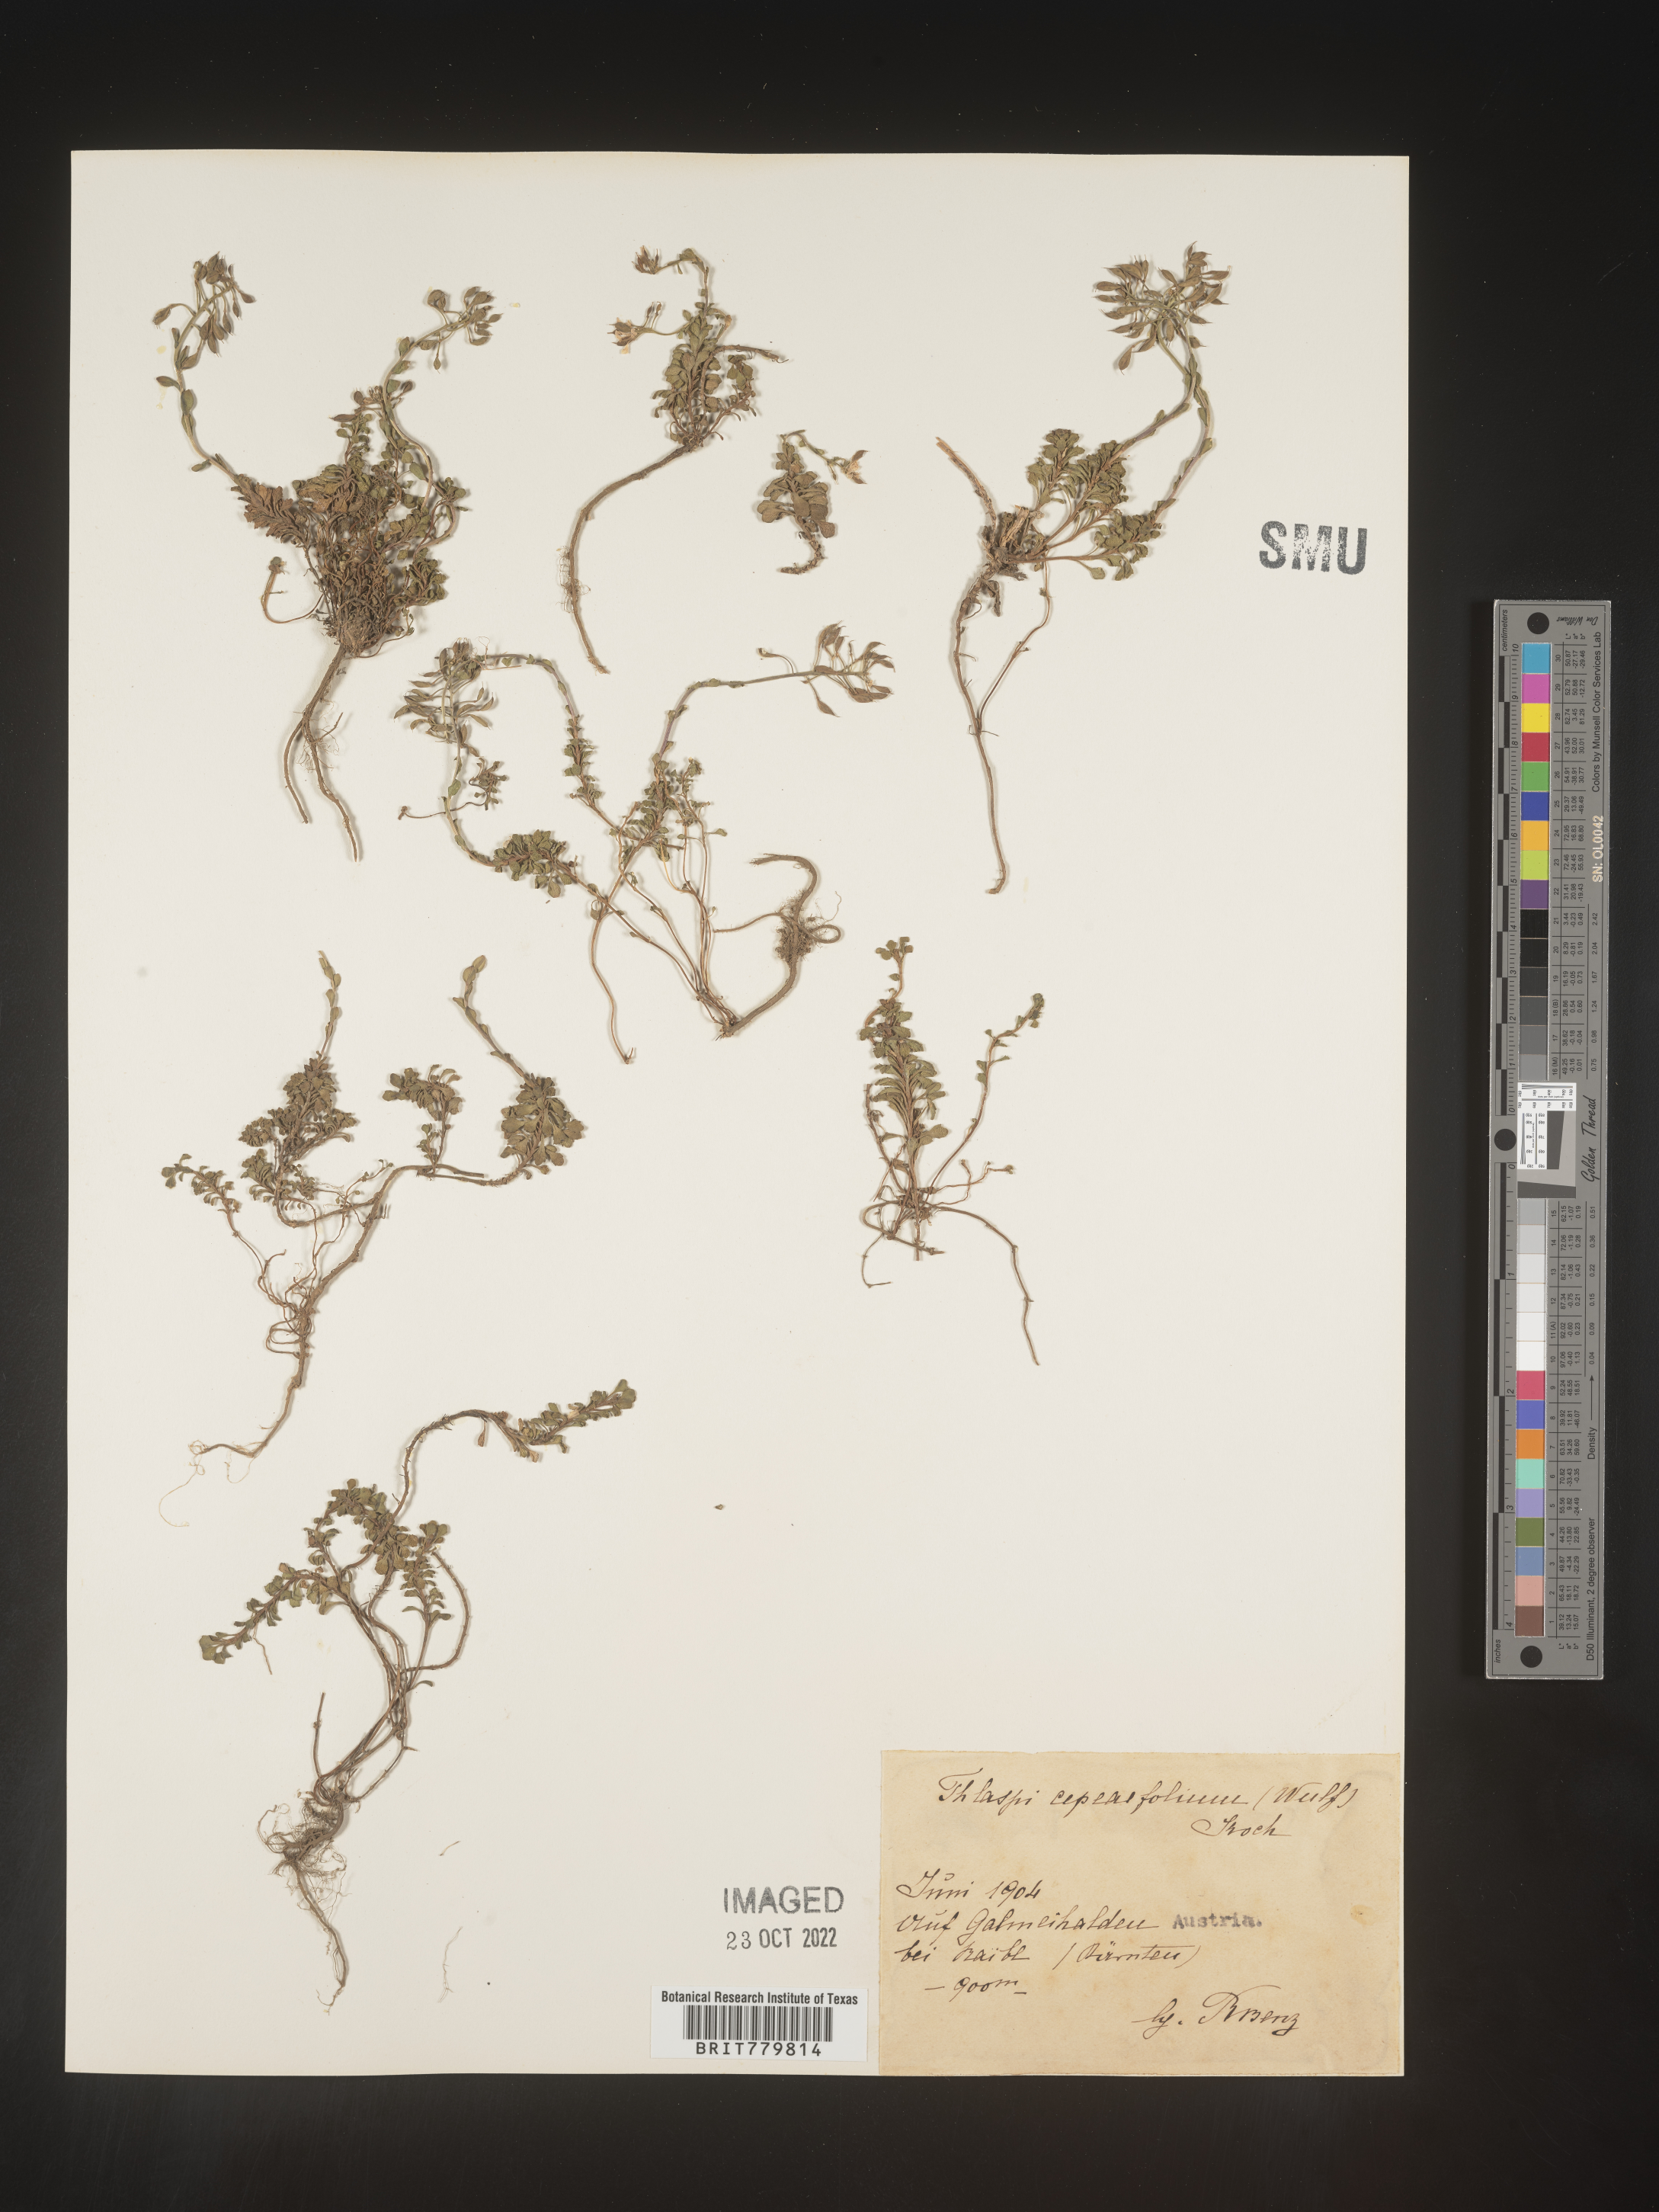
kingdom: Plantae
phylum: Tracheophyta
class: Magnoliopsida
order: Brassicales
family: Brassicaceae
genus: Thlaspi
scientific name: Thlaspi
